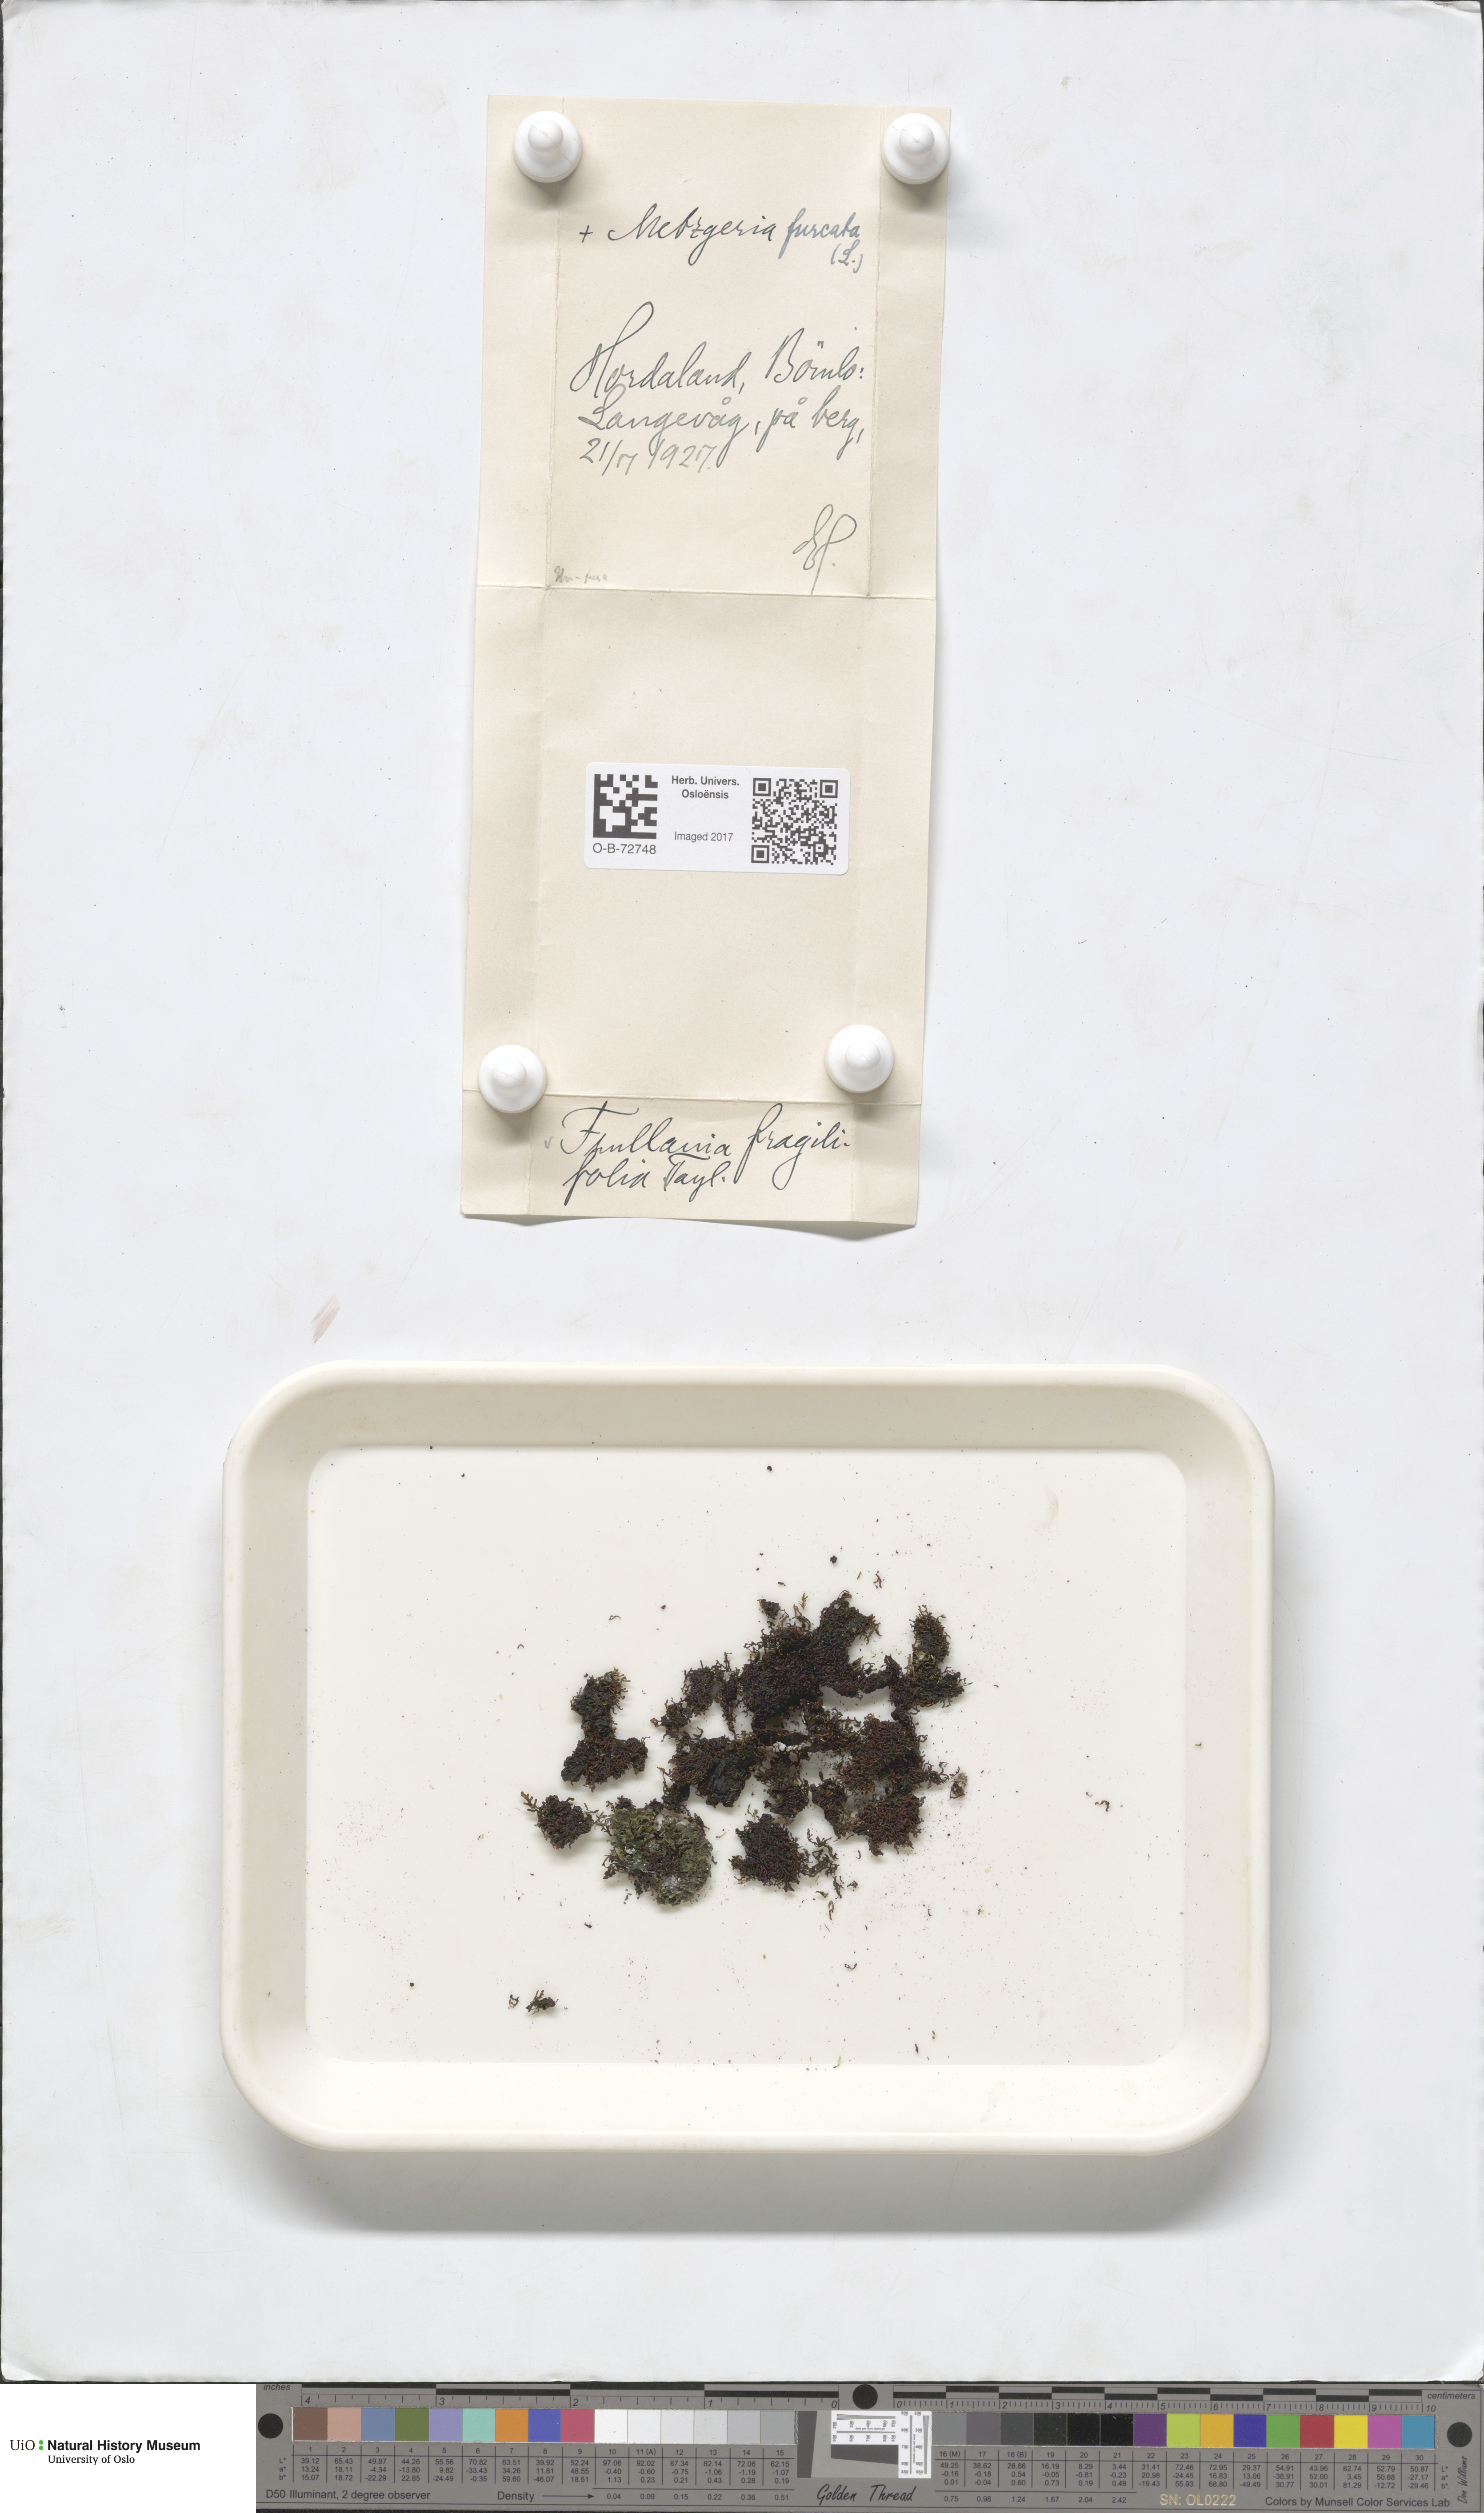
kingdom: Plantae
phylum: Marchantiophyta
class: Jungermanniopsida
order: Porellales
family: Frullaniaceae
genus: Frullania
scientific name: Frullania fragilifolia
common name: Spotty scalewort
